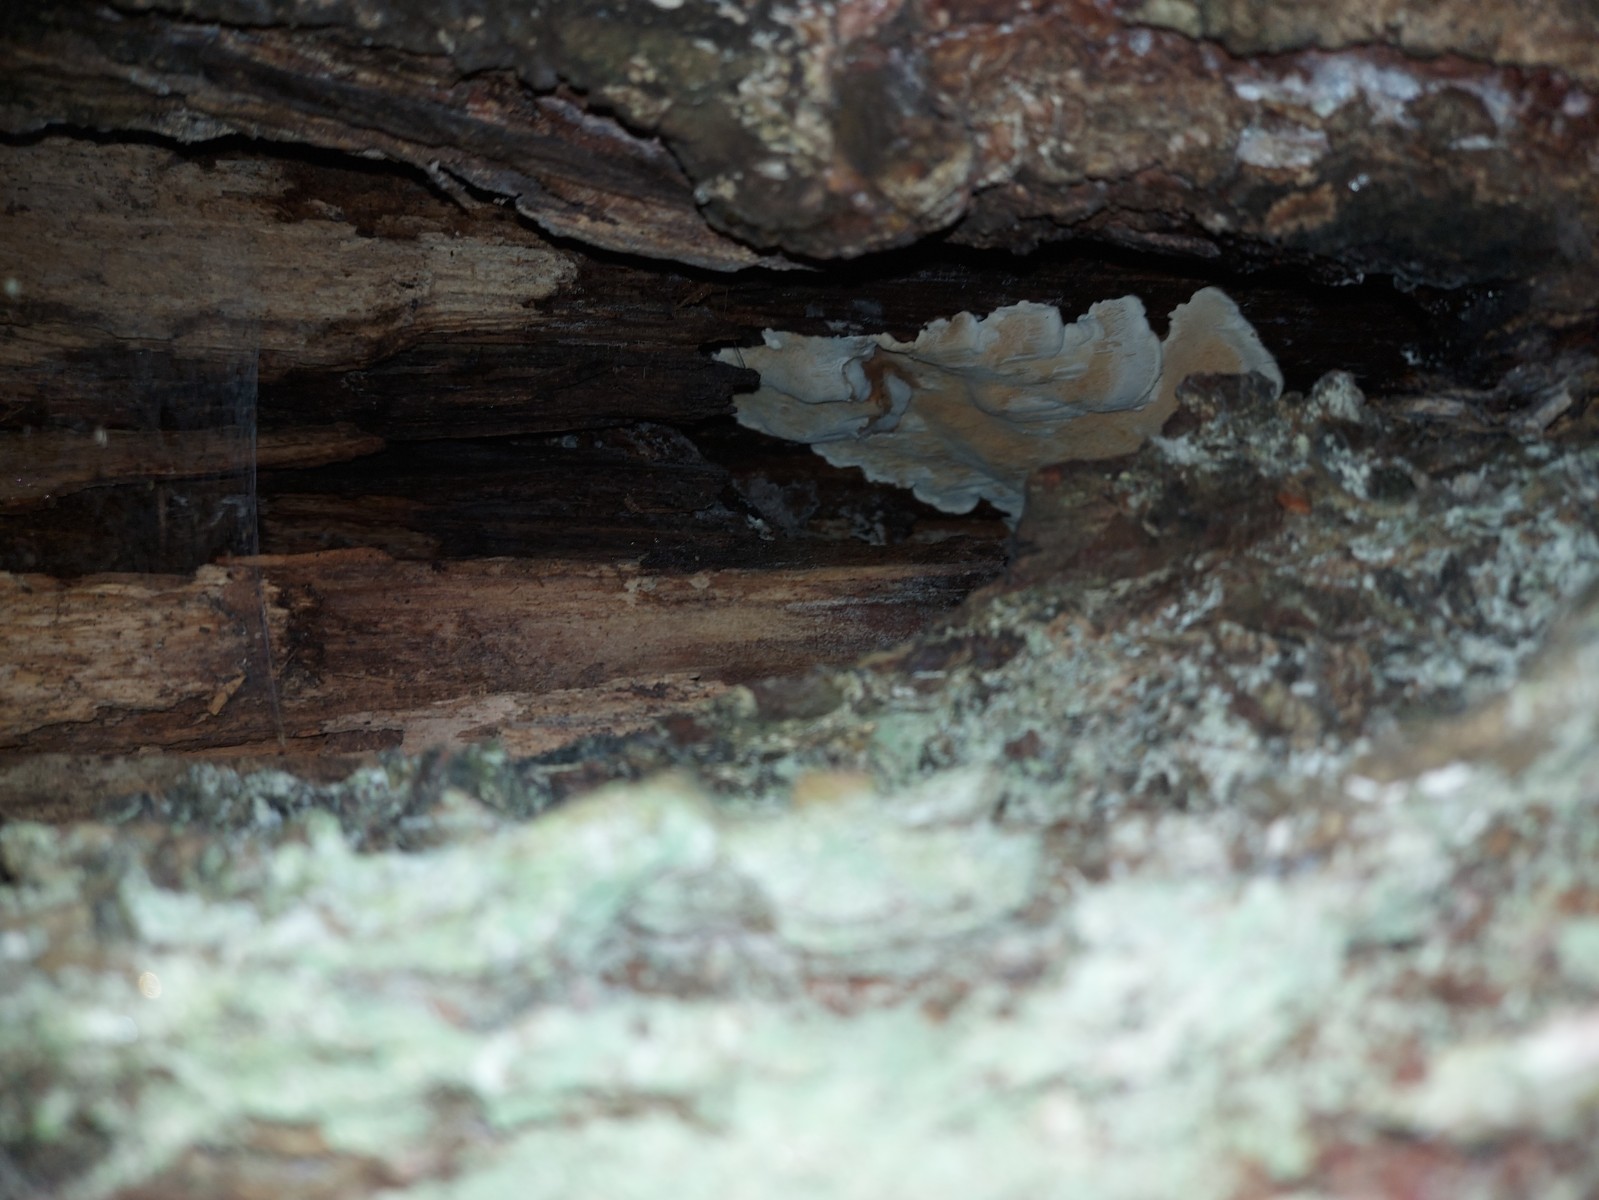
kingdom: Fungi
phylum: Basidiomycota
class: Agaricomycetes
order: Polyporales
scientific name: Polyporales
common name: poresvampordenen
